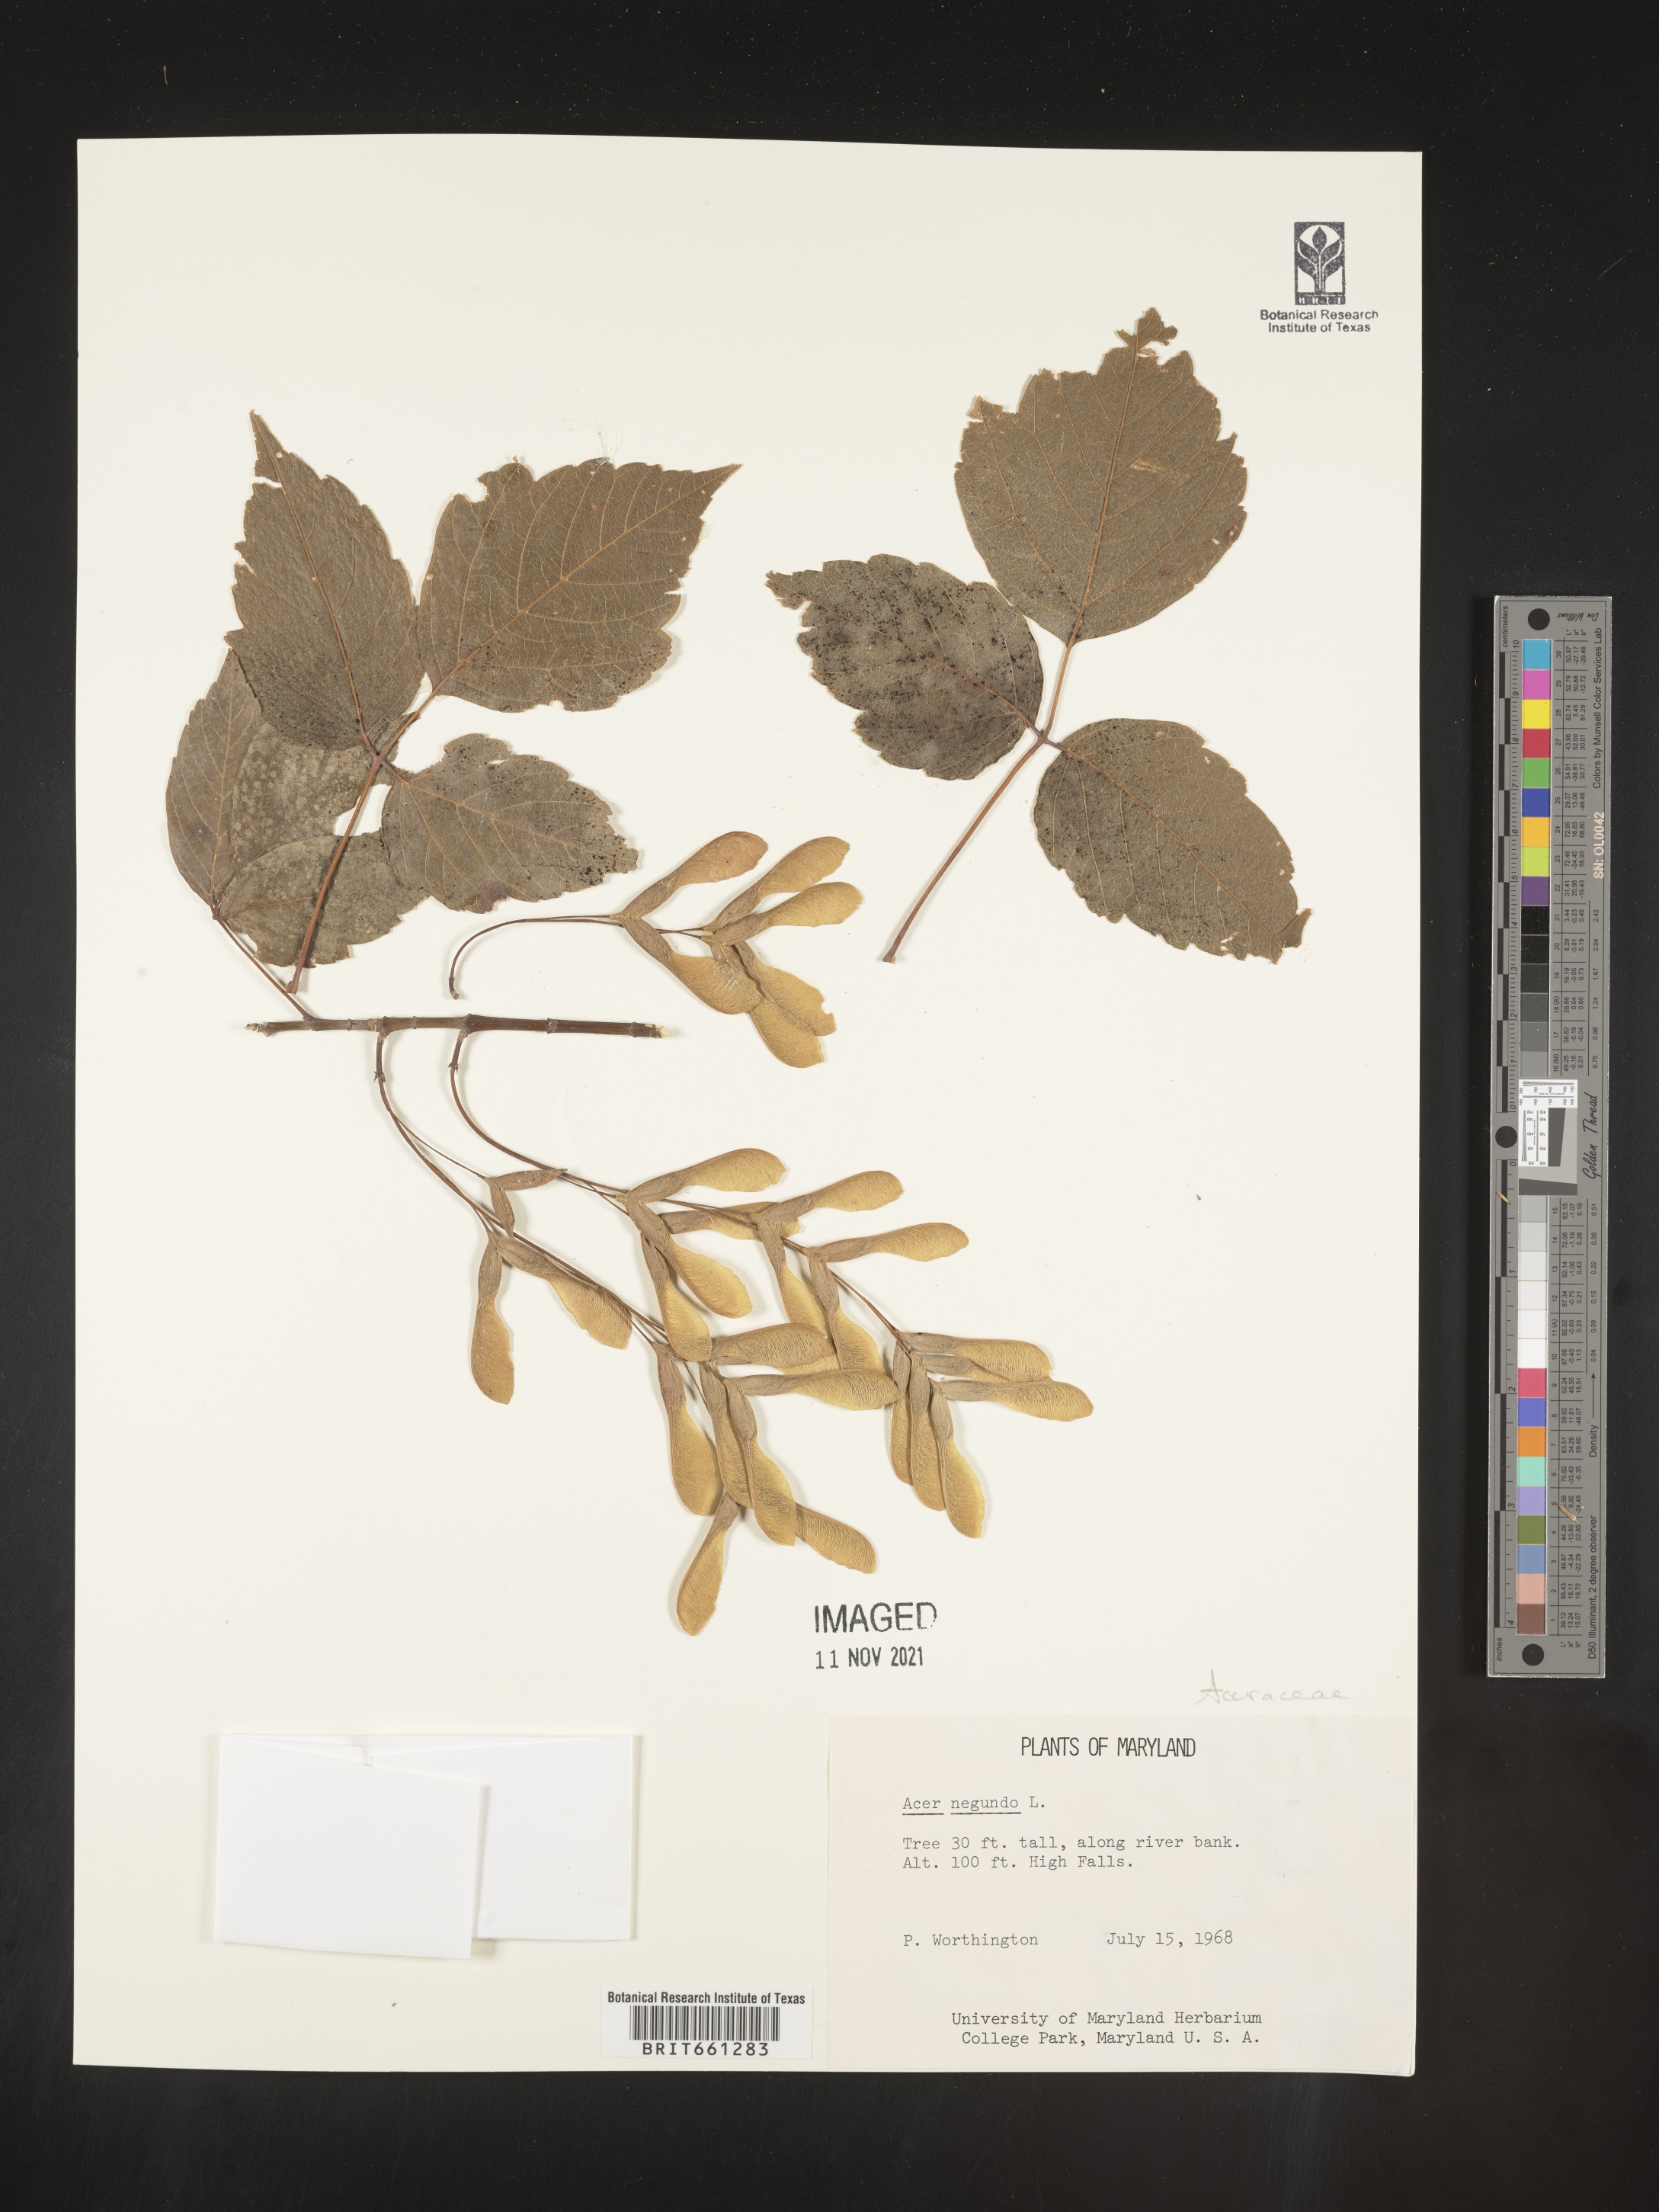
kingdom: Plantae
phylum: Tracheophyta
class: Magnoliopsida
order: Sapindales
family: Sapindaceae
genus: Acer
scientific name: Acer negundo
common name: Ashleaf maple
